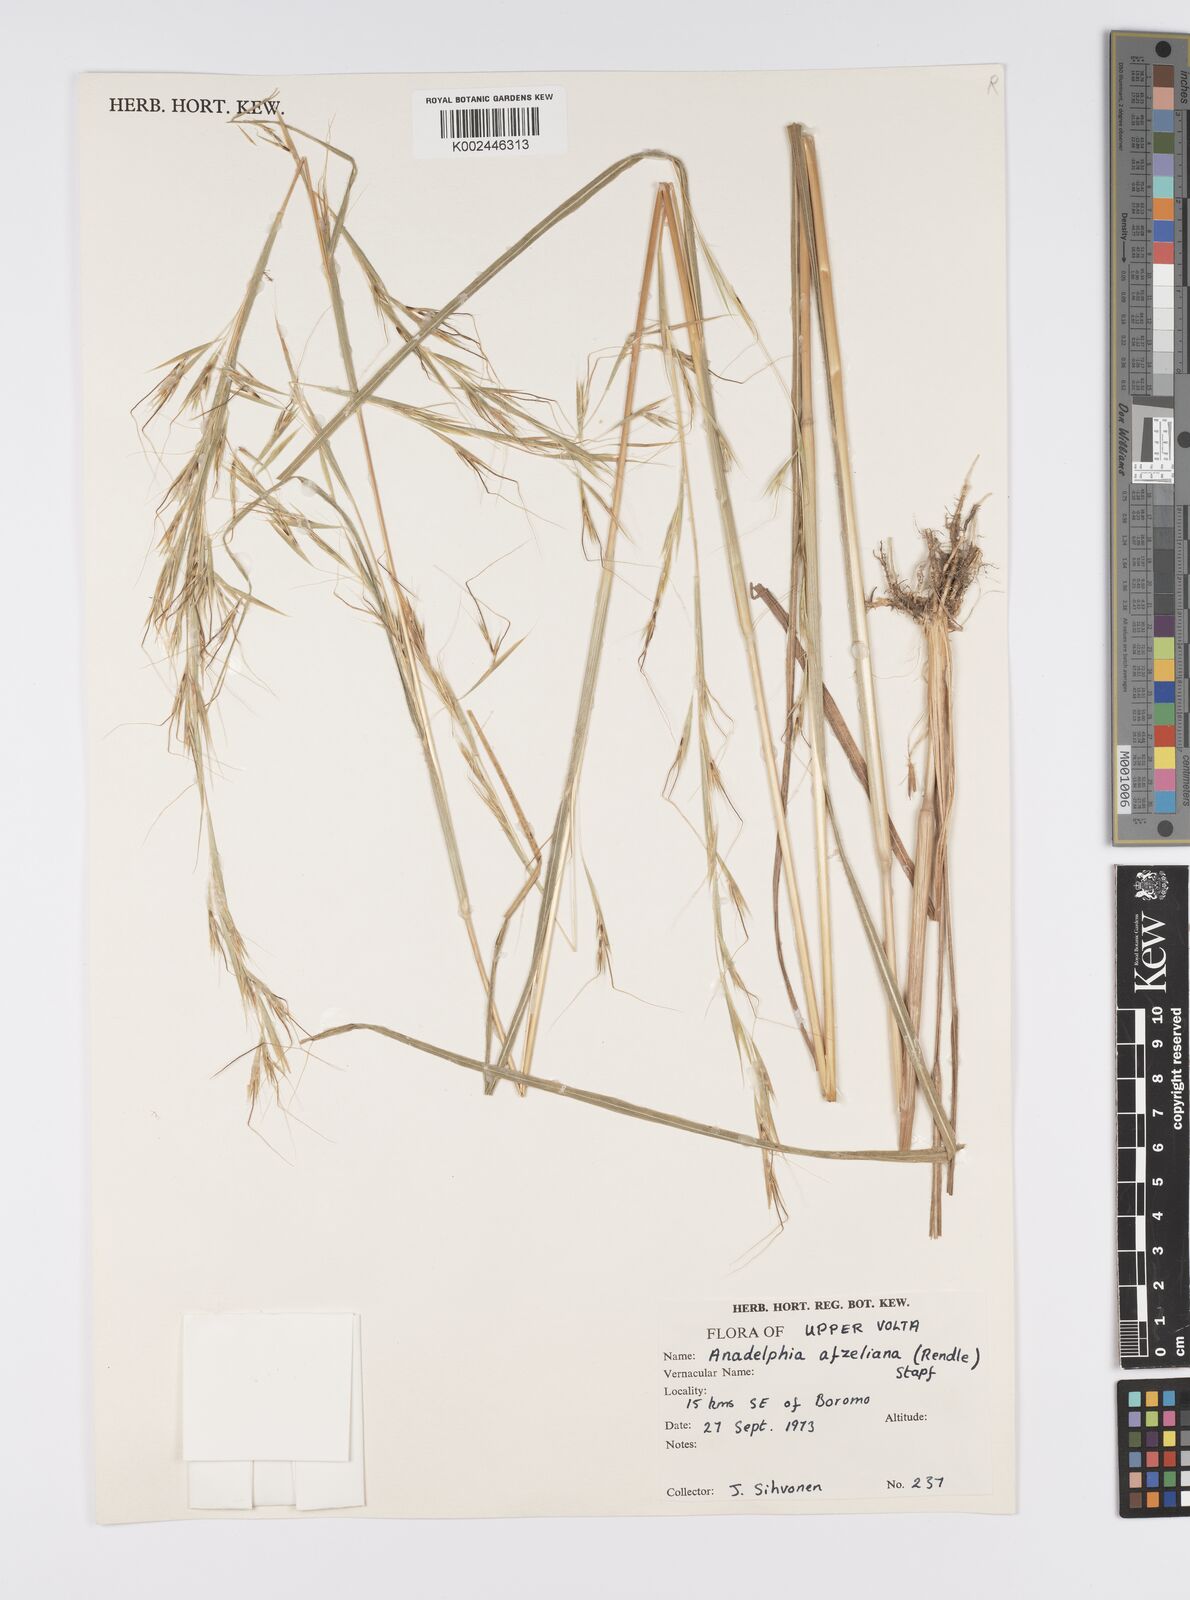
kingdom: Plantae
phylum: Tracheophyta
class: Liliopsida
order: Poales
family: Poaceae
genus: Anadelphia
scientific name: Anadelphia afzeliana
